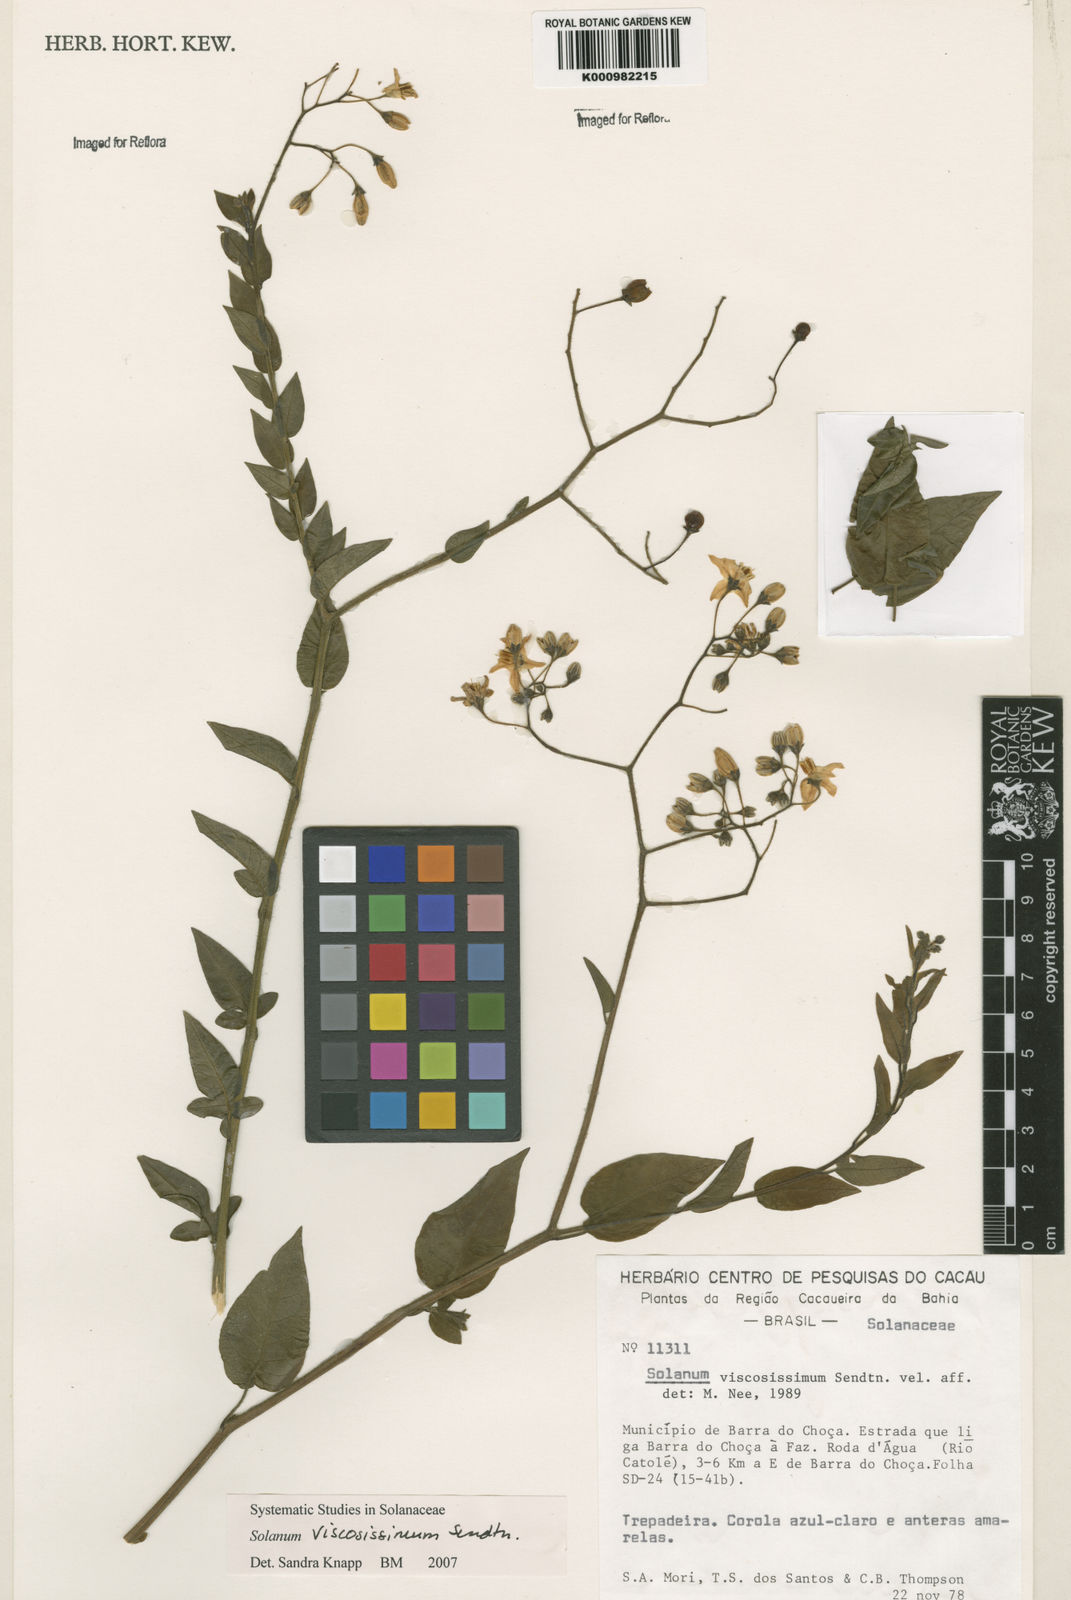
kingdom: Plantae
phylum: Tracheophyta
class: Magnoliopsida
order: Solanales
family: Solanaceae
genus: Solanum
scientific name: Solanum viscosissimum
